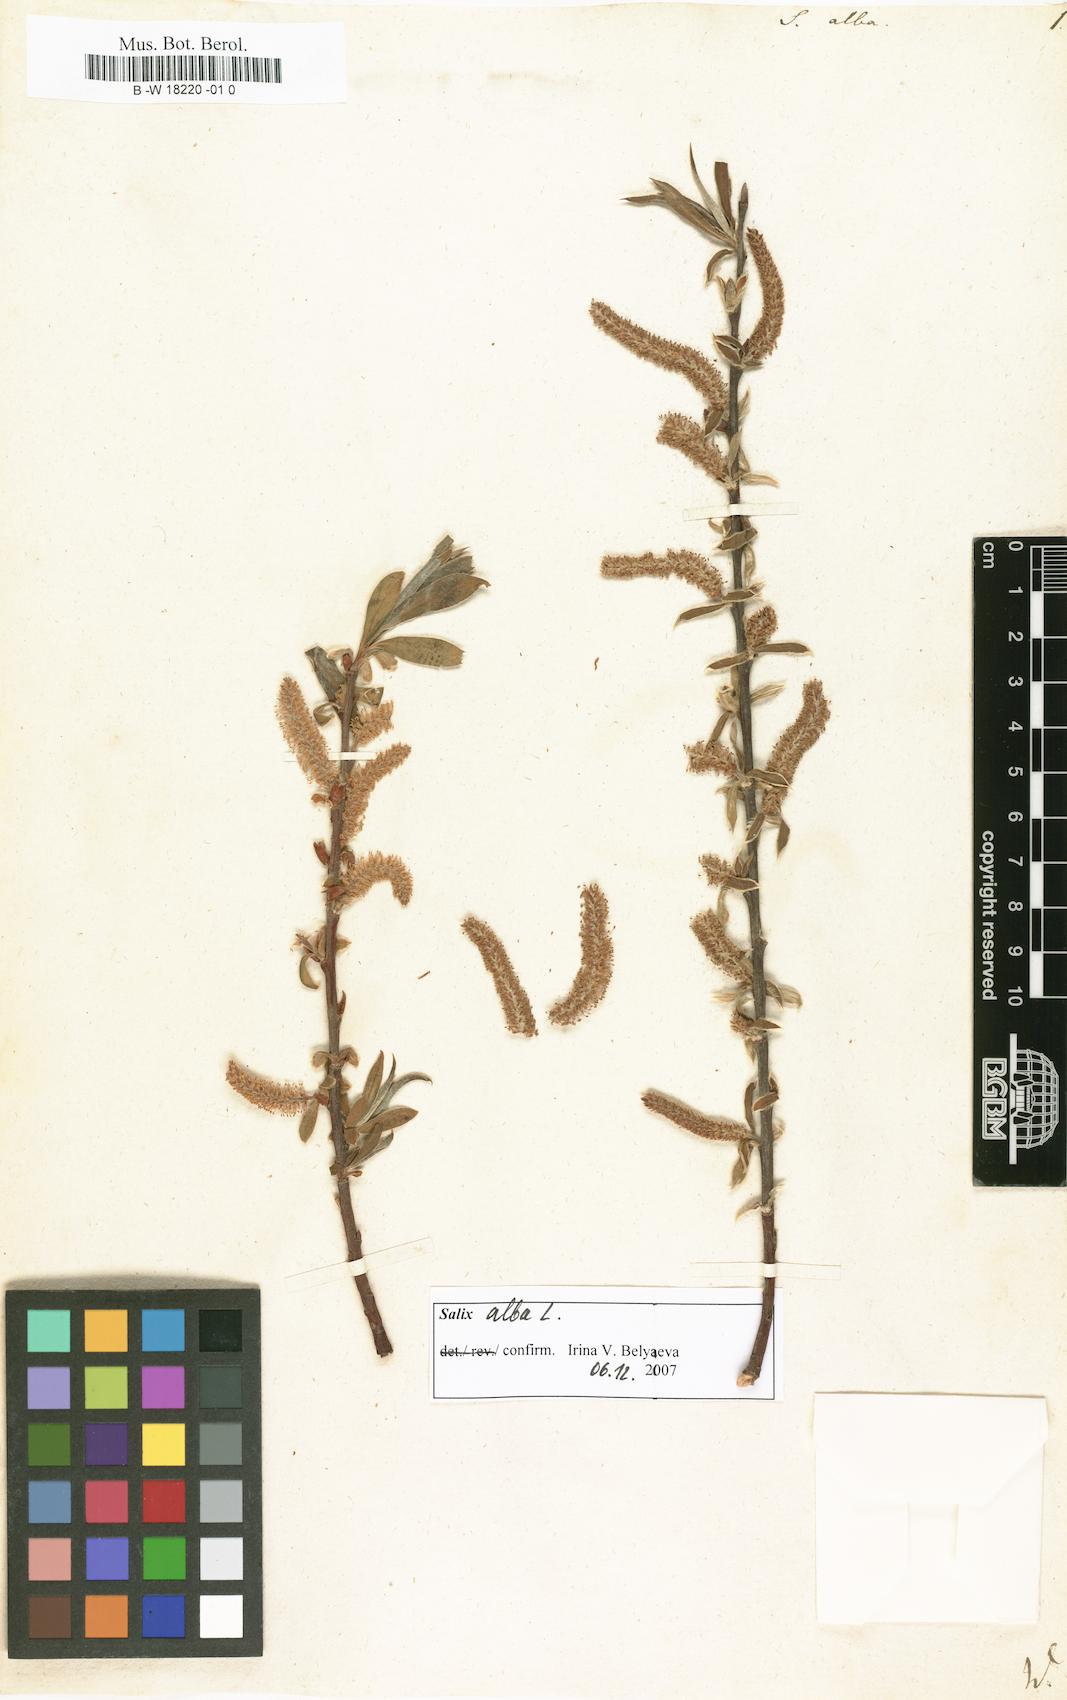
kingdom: Plantae
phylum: Tracheophyta
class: Magnoliopsida
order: Malpighiales
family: Salicaceae
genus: Salix
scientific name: Salix alba
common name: White willow
